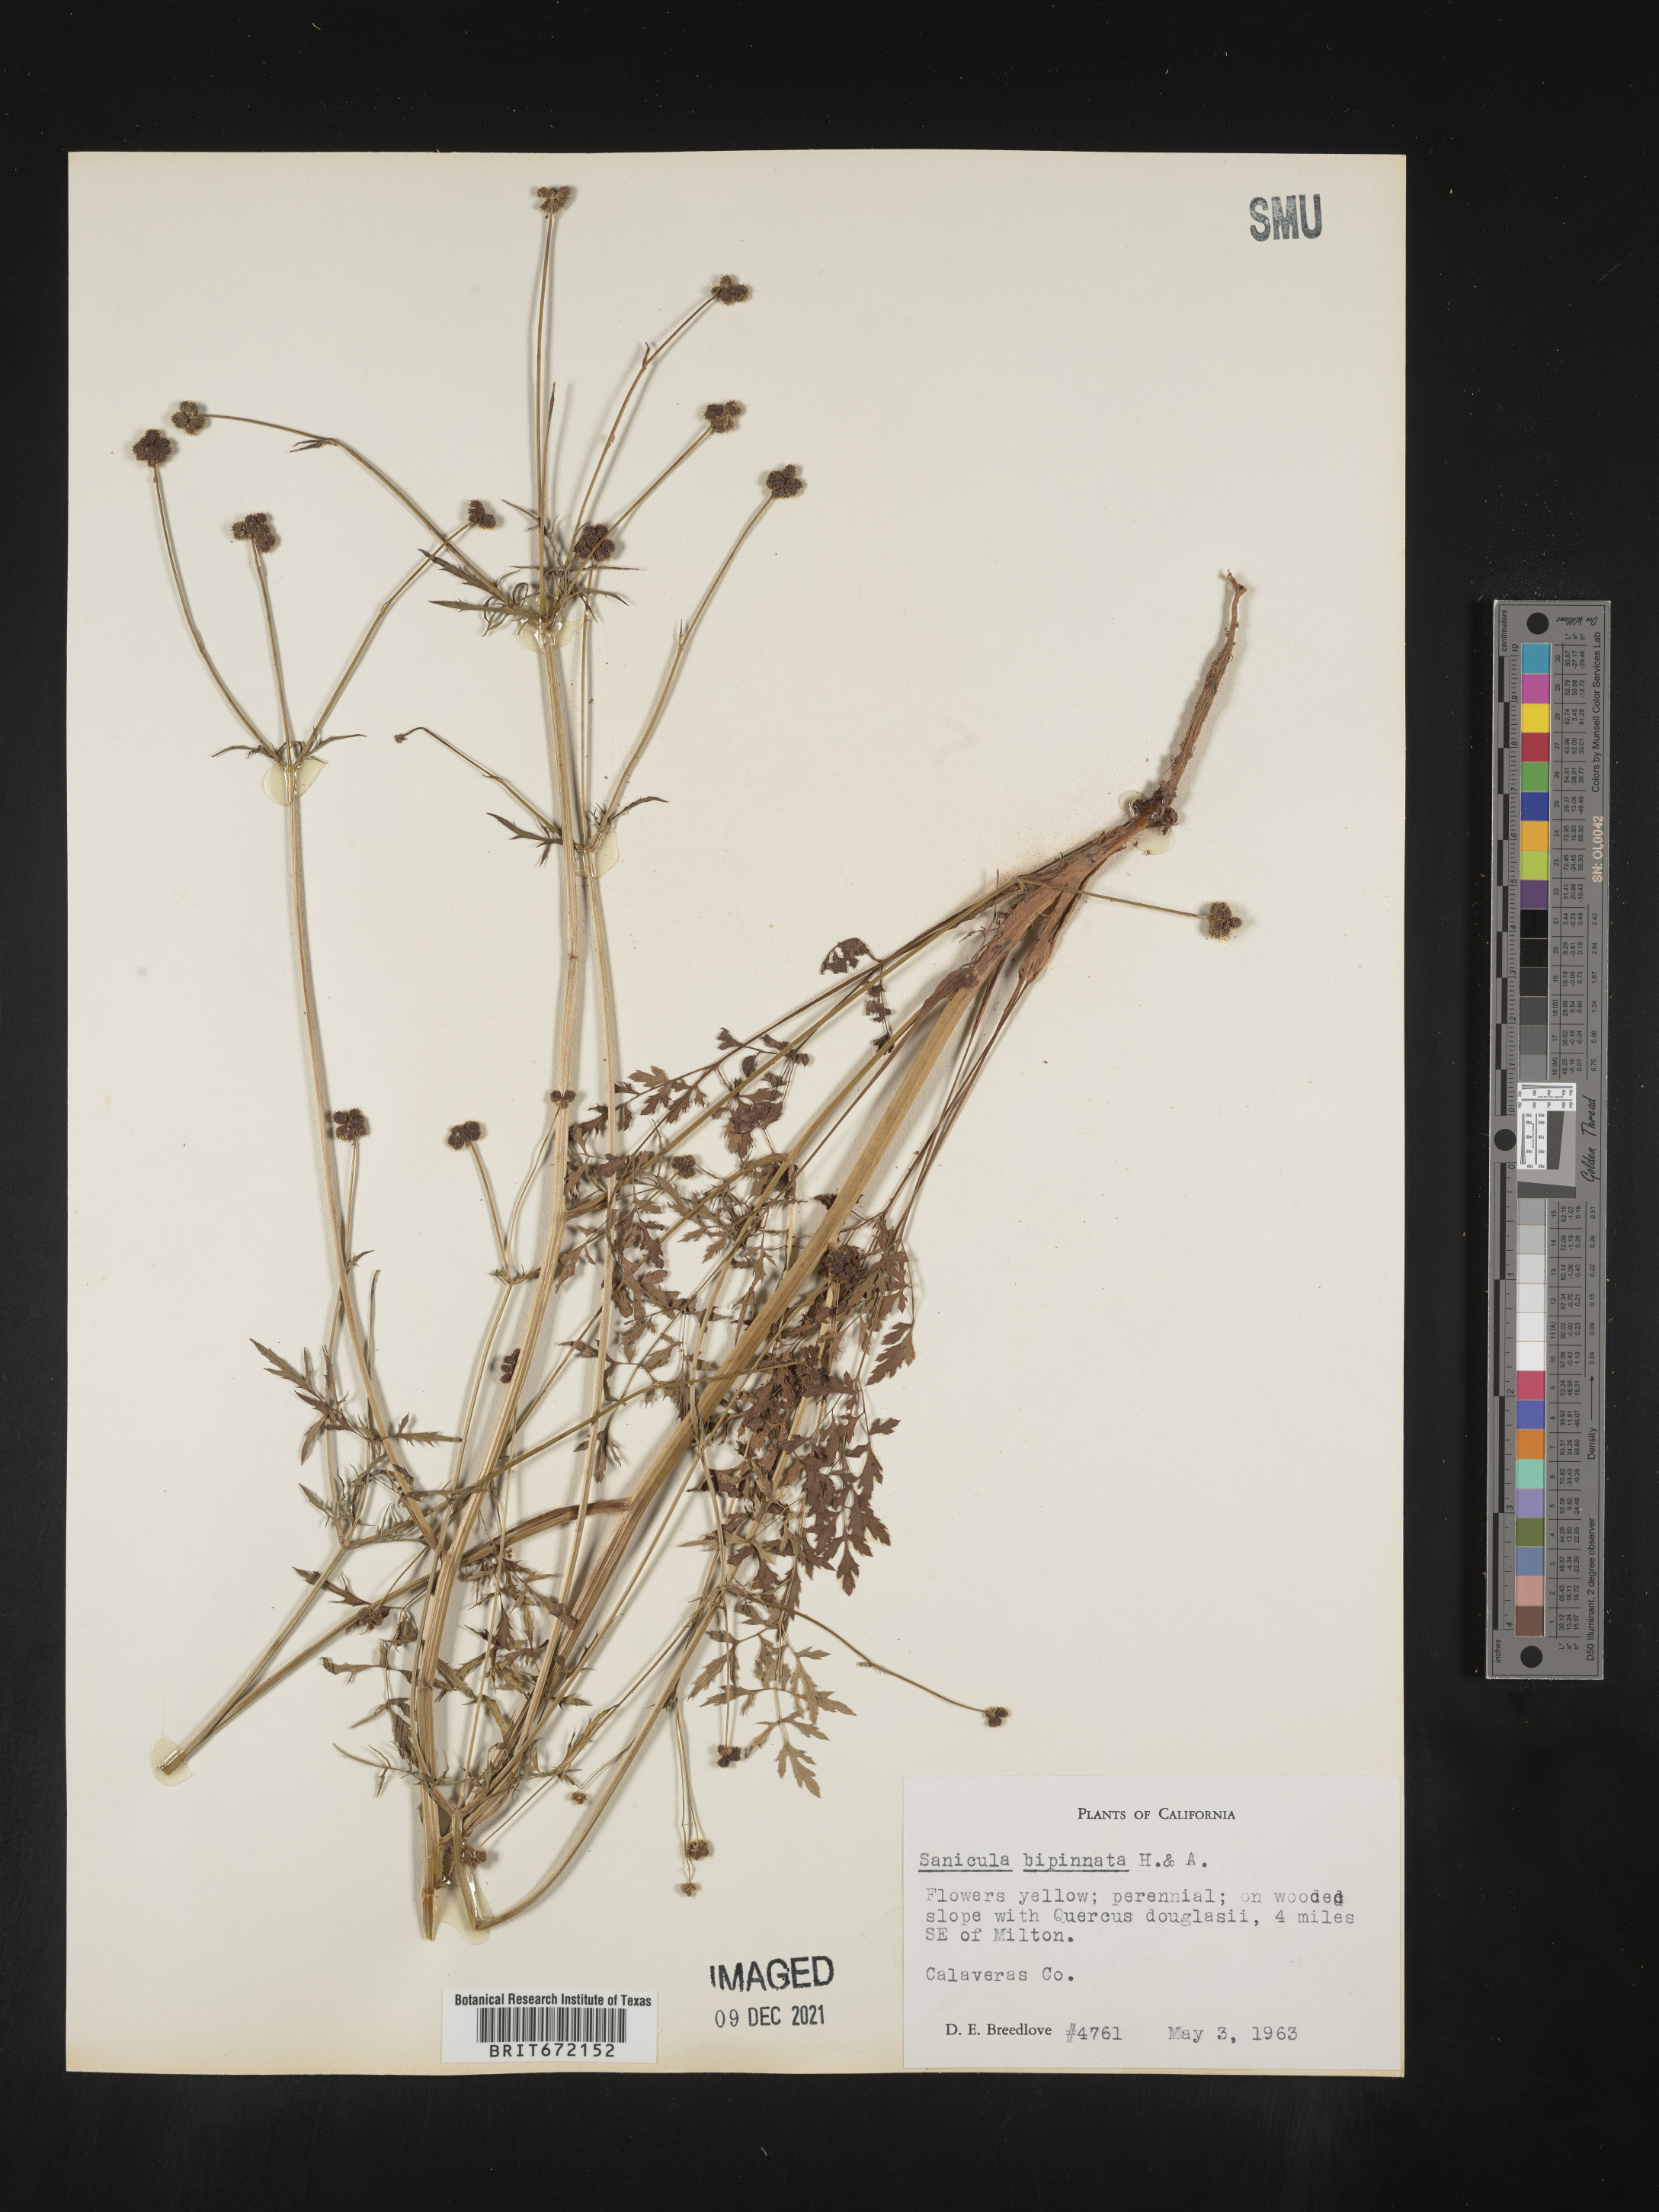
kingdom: Plantae
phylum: Tracheophyta
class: Magnoliopsida
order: Apiales
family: Apiaceae
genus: Sanicula
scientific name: Sanicula
